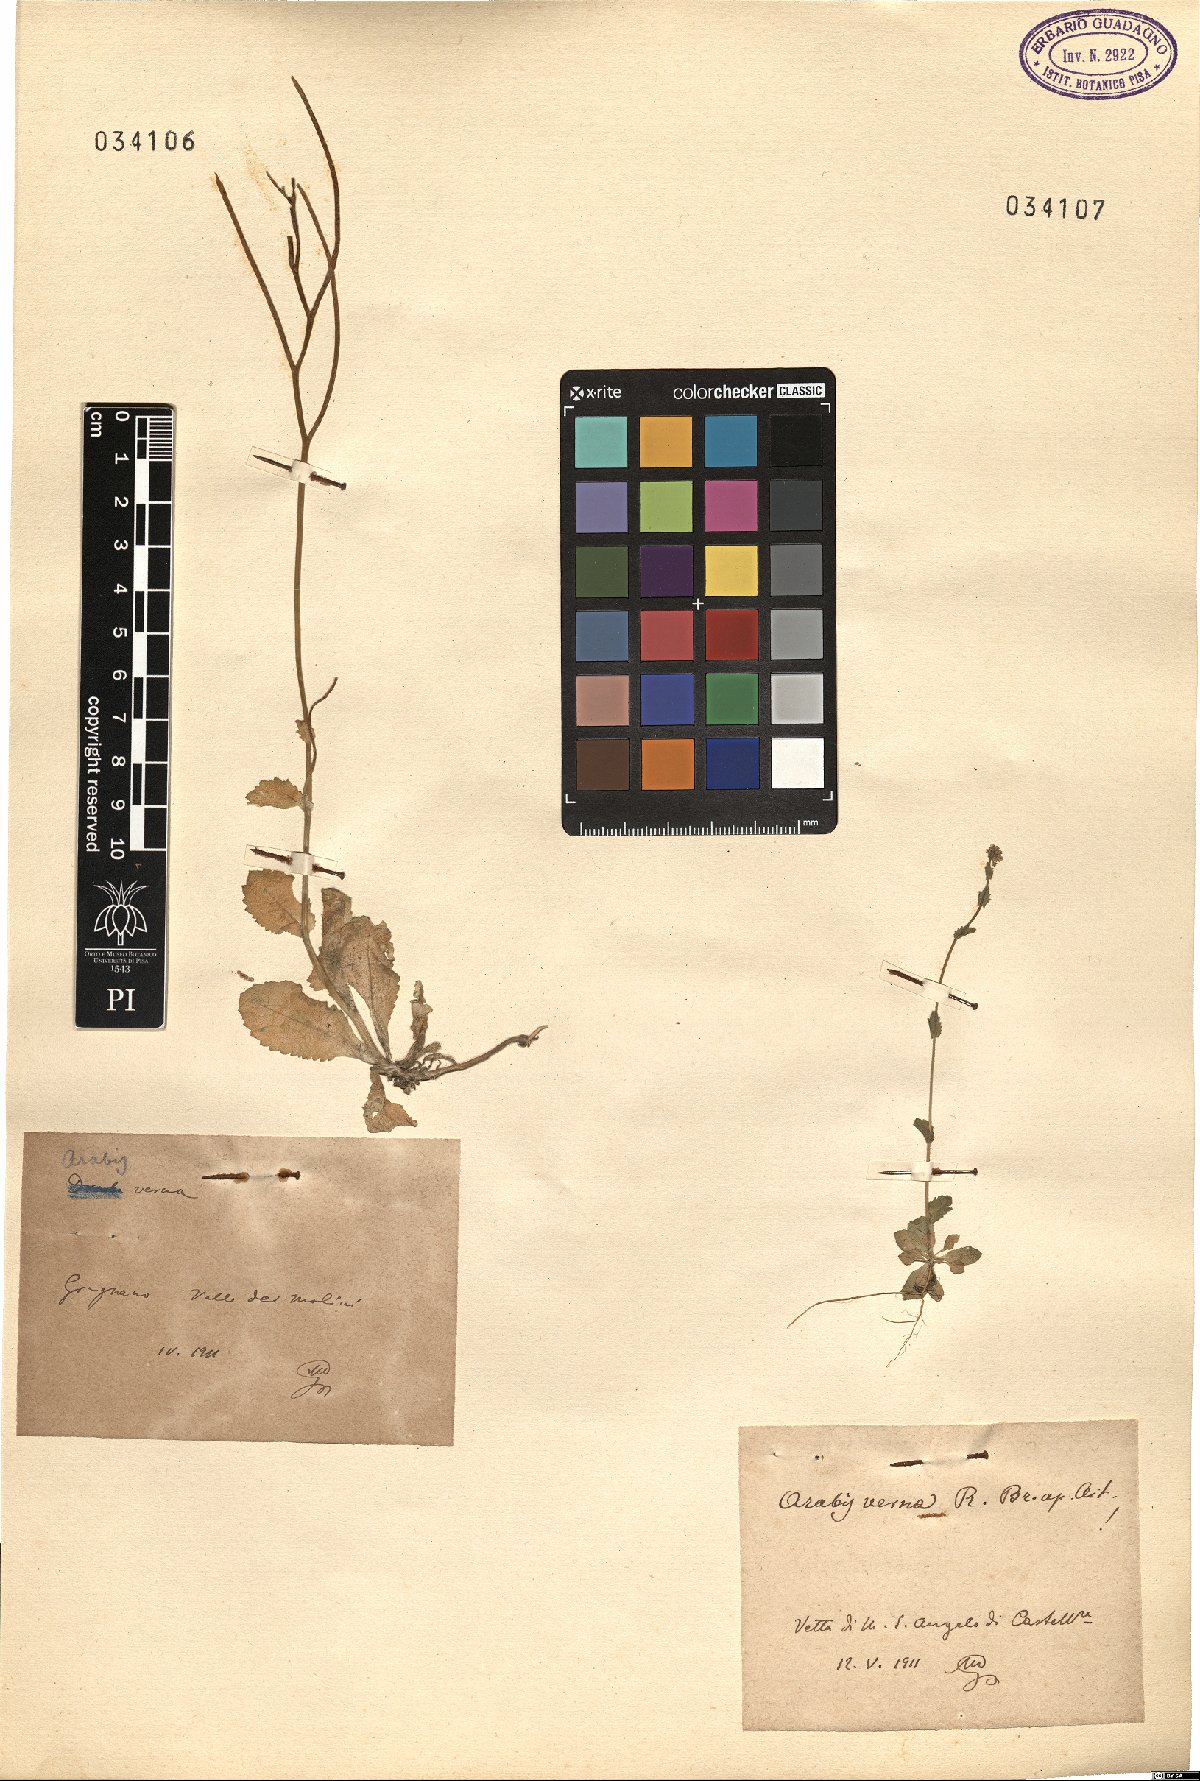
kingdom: Plantae
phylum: Tracheophyta
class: Magnoliopsida
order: Brassicales
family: Brassicaceae
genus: Arabis
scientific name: Arabis verna
